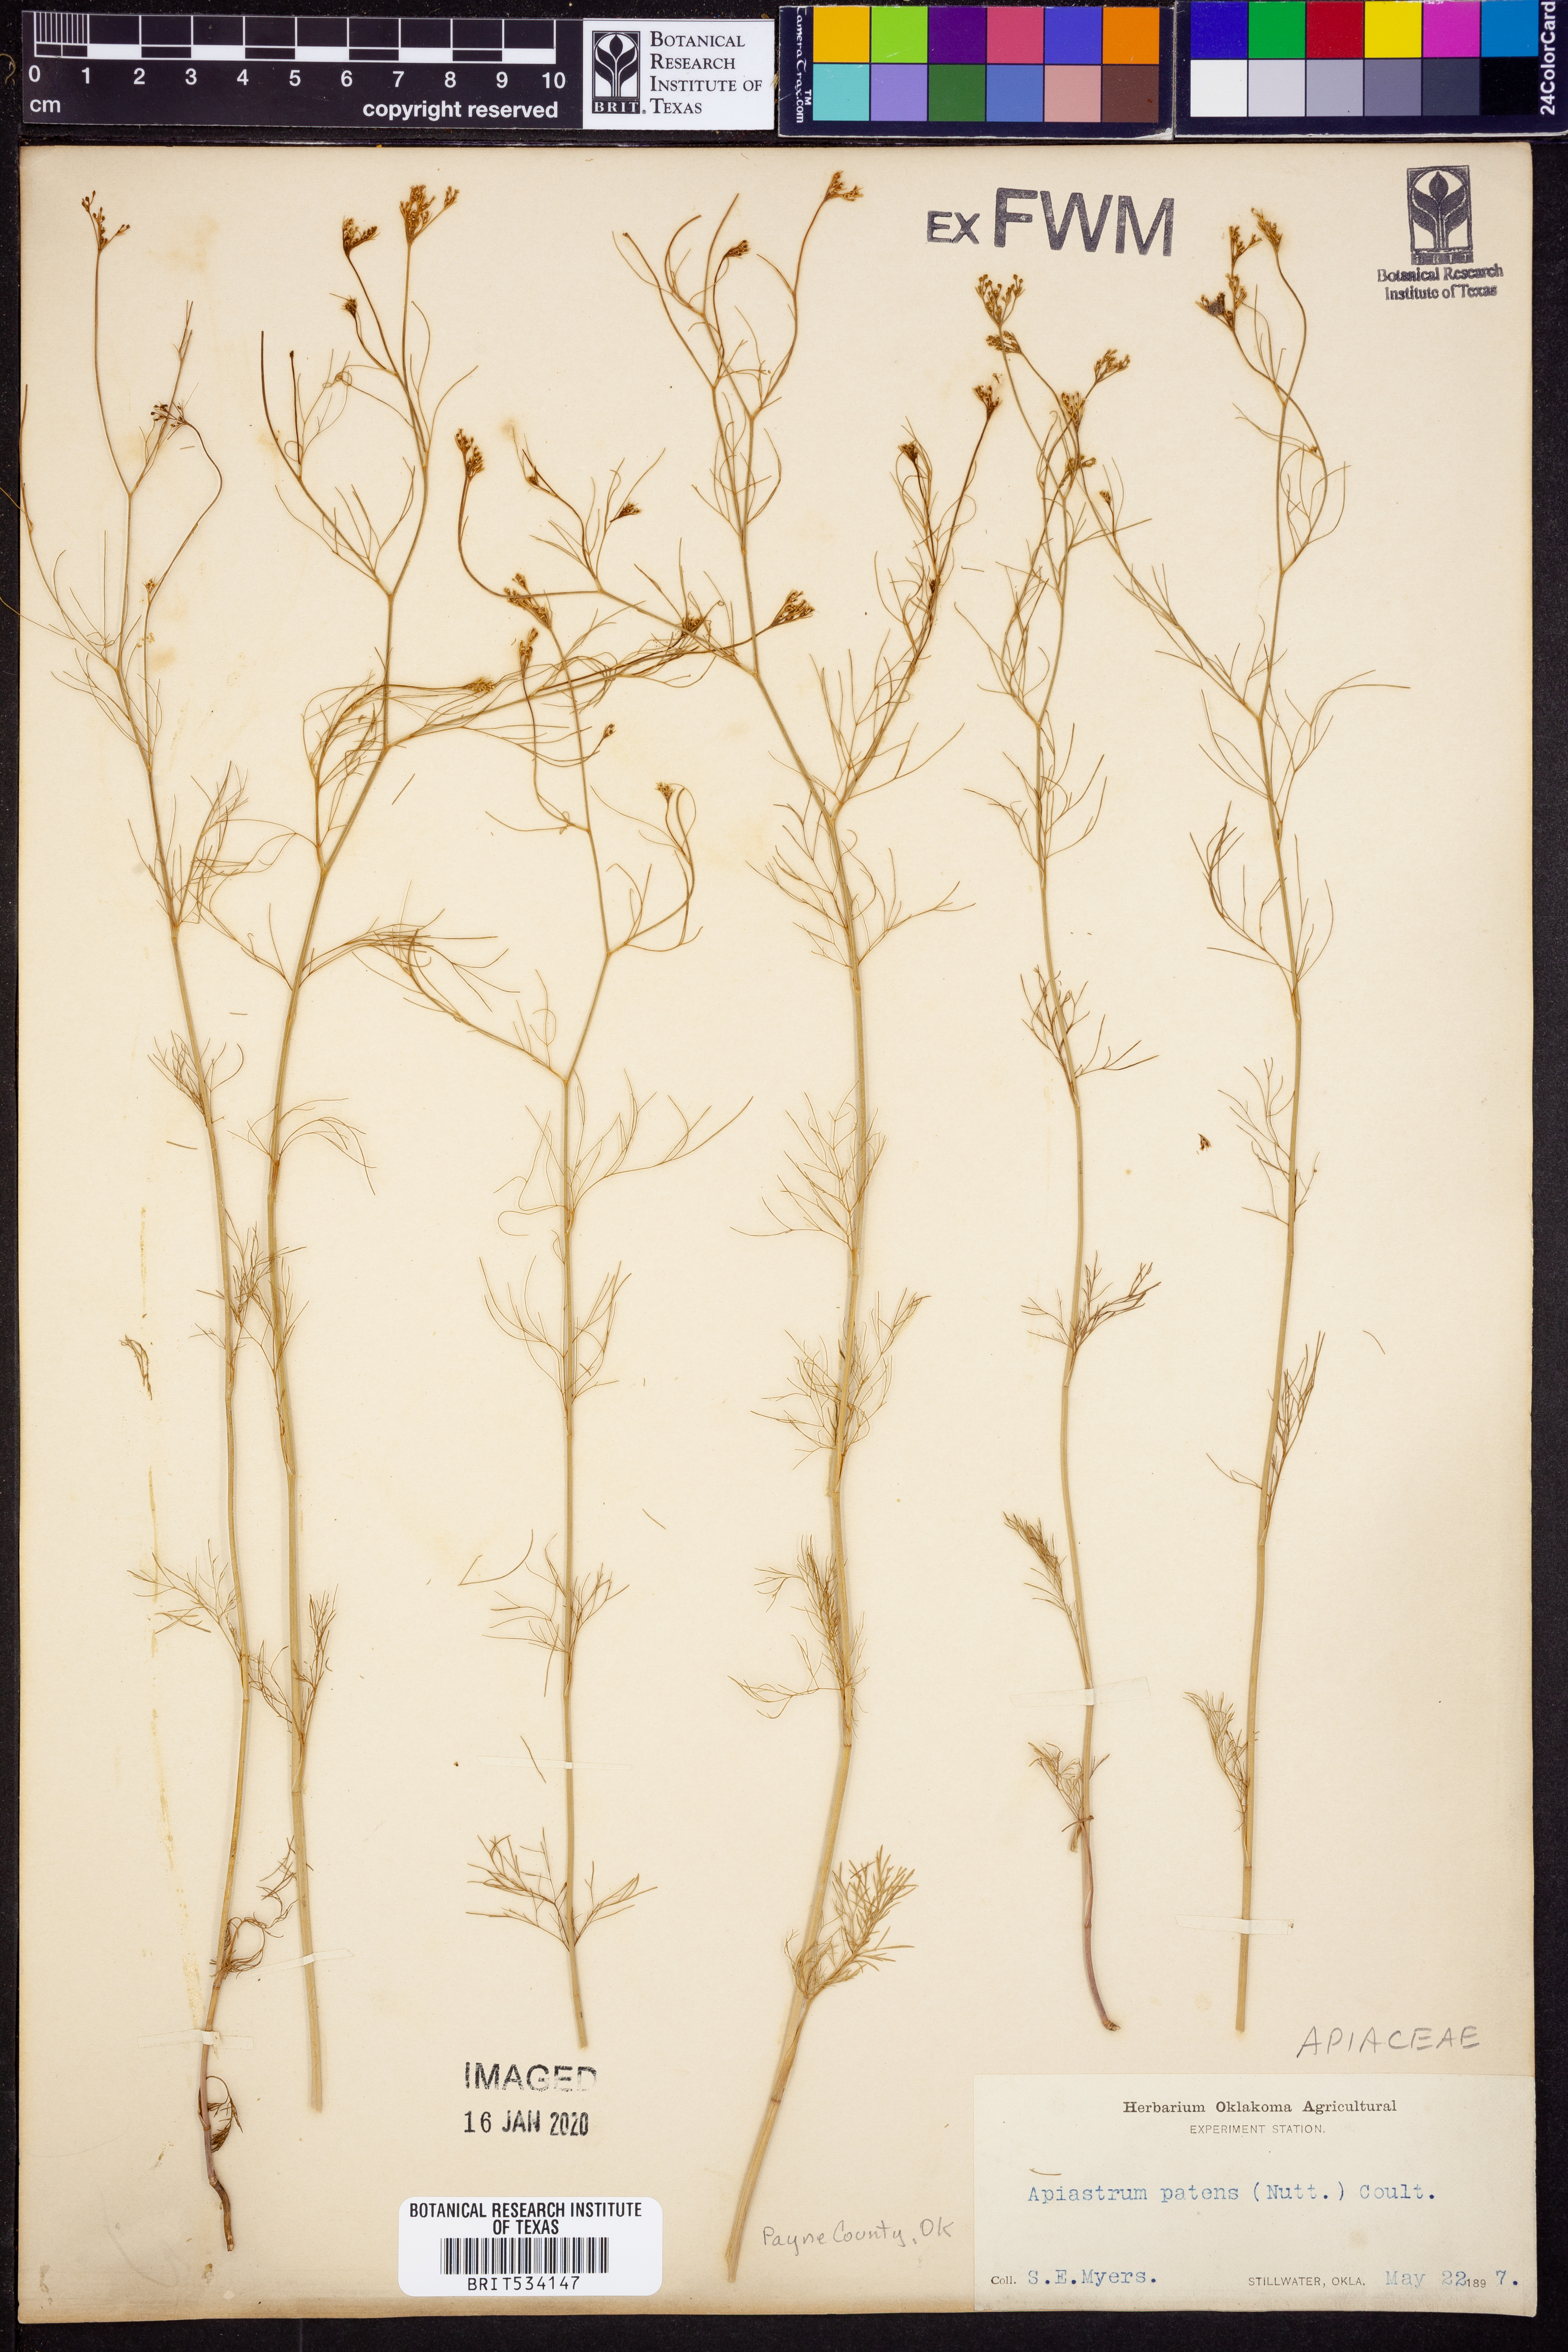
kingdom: Plantae
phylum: Tracheophyta
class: Magnoliopsida
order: Apiales
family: Apiaceae
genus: Spermolepis
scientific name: Spermolepis inermis
